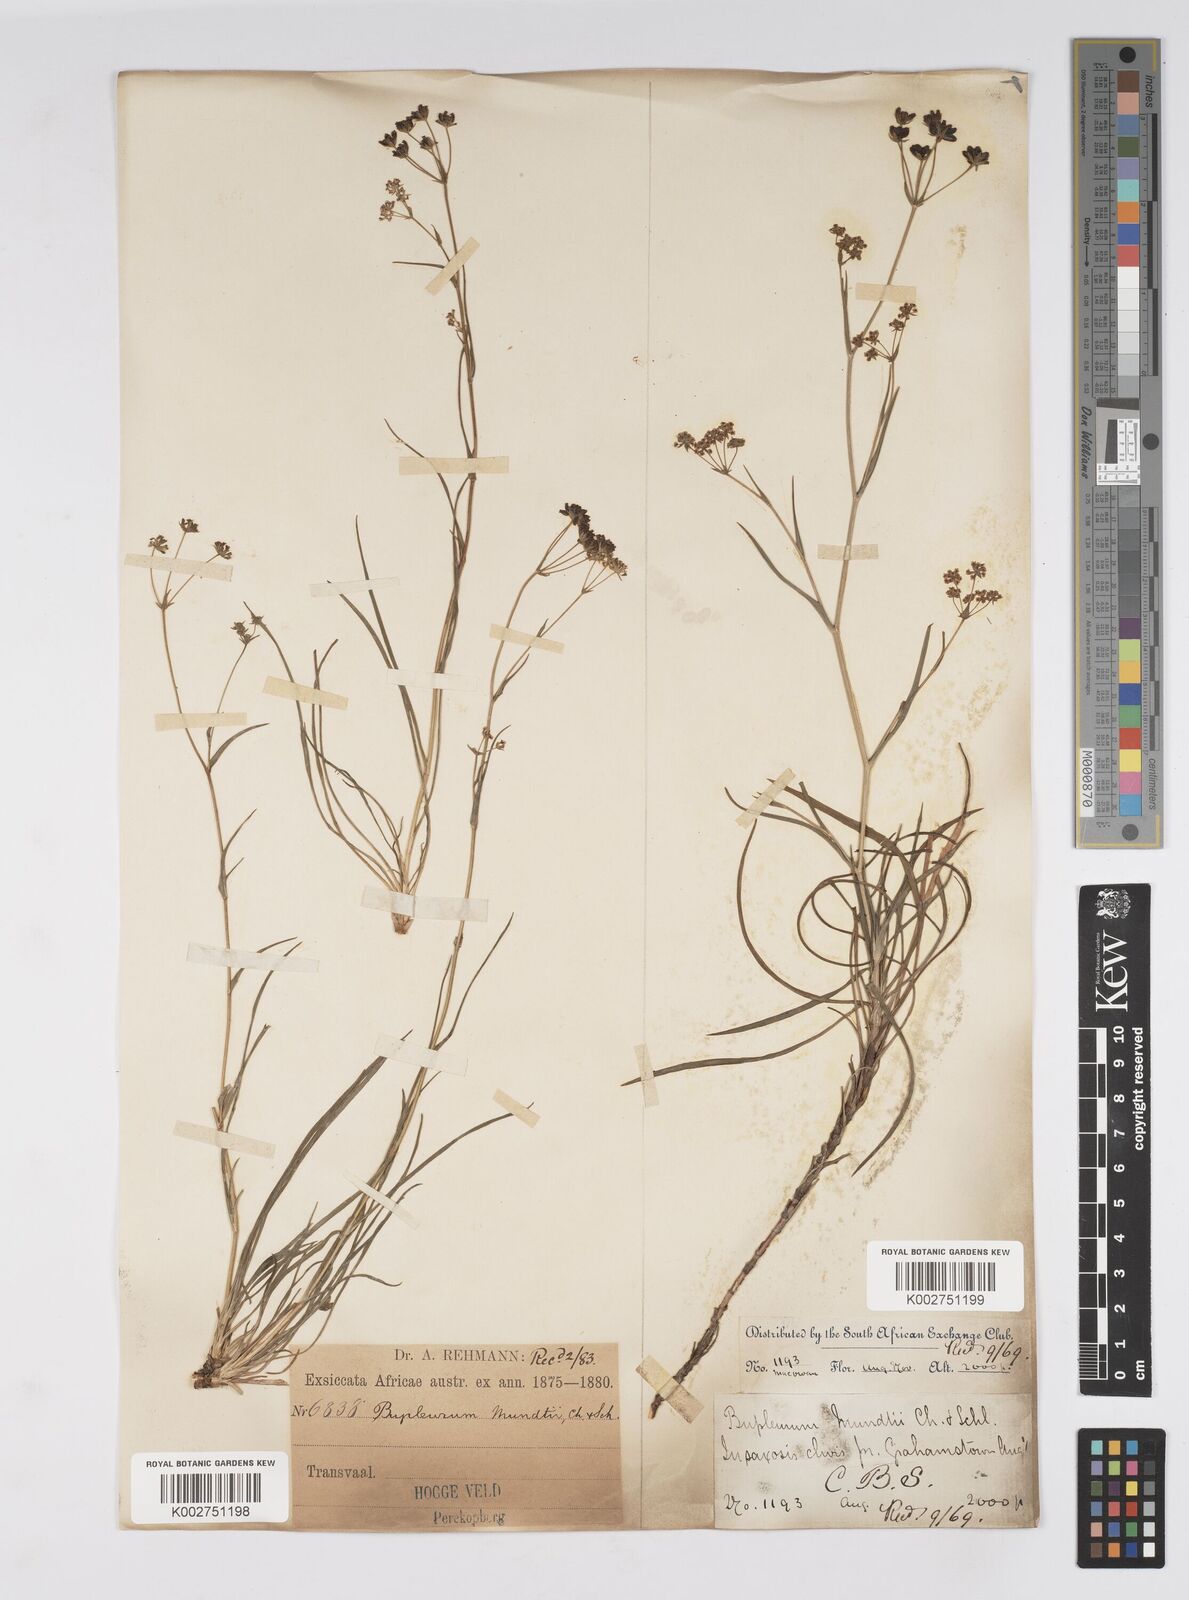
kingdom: Plantae
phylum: Tracheophyta
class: Magnoliopsida
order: Apiales
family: Apiaceae
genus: Bupleurum
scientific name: Bupleurum mundii
